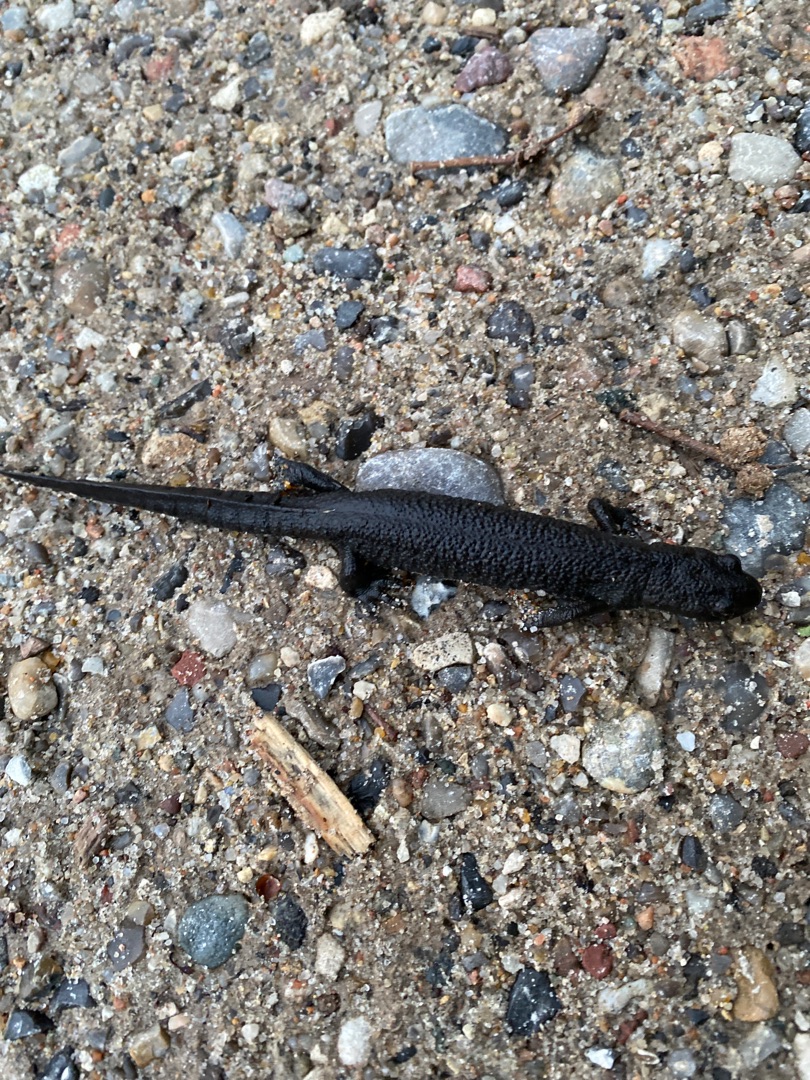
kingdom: Animalia
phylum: Chordata
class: Amphibia
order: Caudata
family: Salamandridae
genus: Triturus
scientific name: Triturus cristatus
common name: Stor vandsalamander
